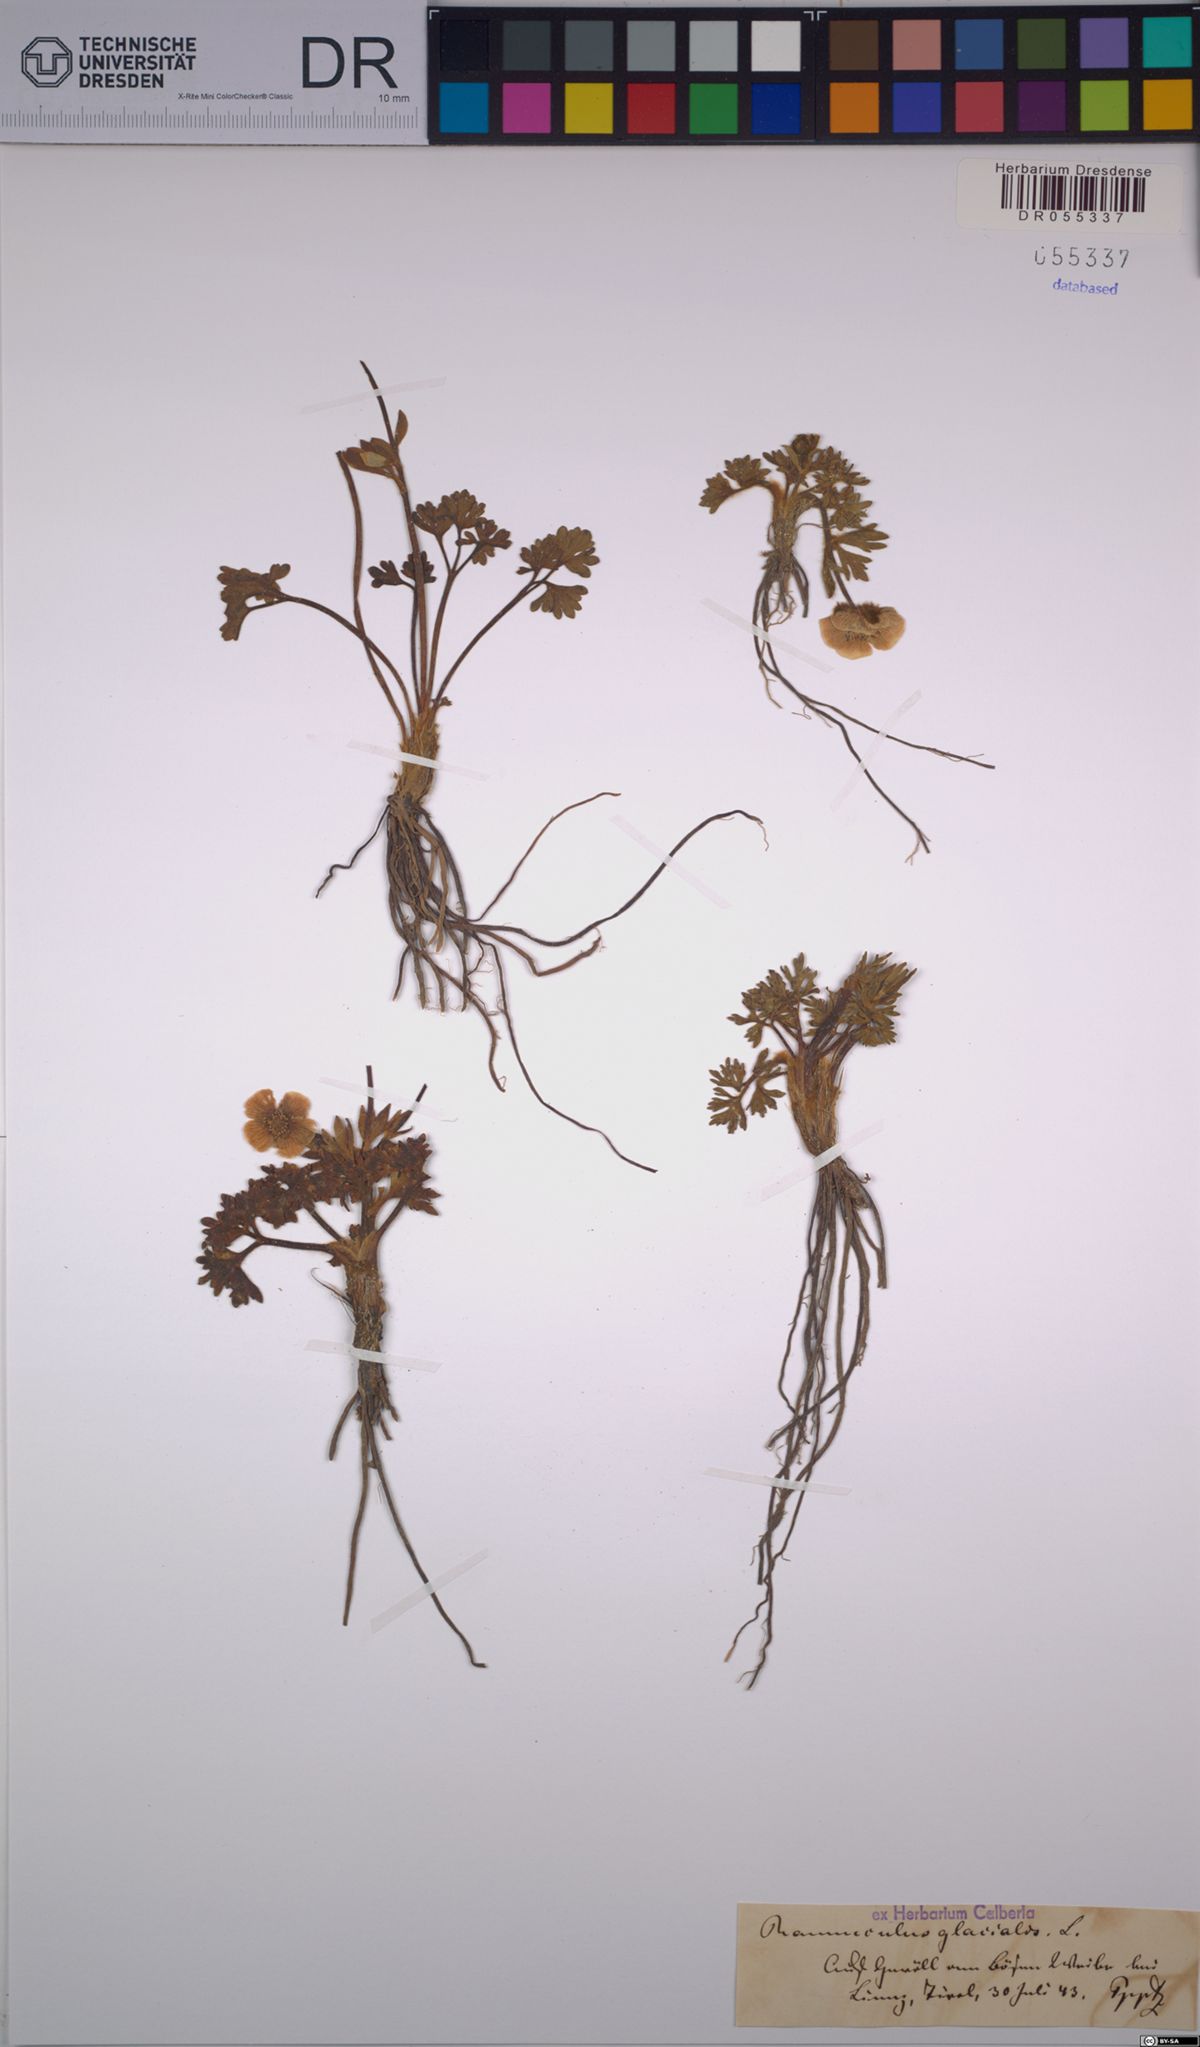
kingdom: Plantae
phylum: Tracheophyta
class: Magnoliopsida
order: Ranunculales
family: Ranunculaceae
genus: Ranunculus
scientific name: Ranunculus glacialis
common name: Glacier buttercup
